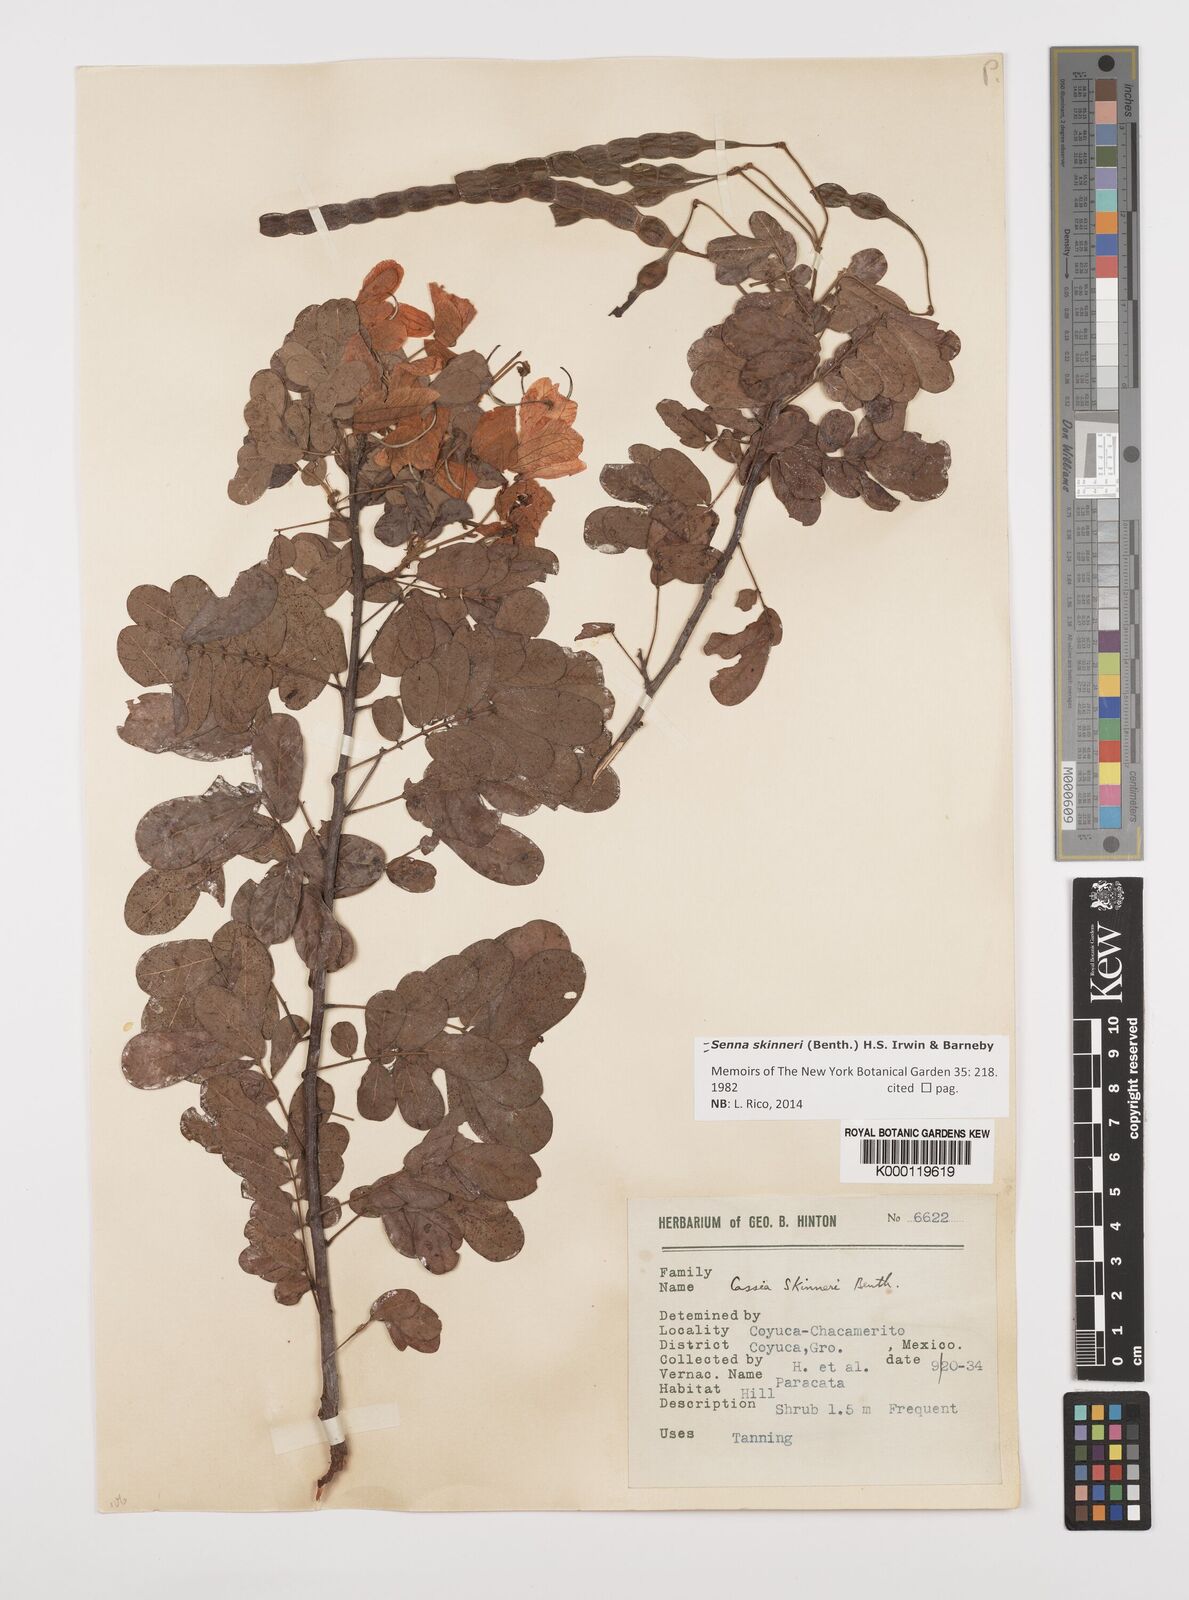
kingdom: Plantae
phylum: Tracheophyta
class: Magnoliopsida
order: Fabales
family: Fabaceae
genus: Senna
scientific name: Senna skinneri
